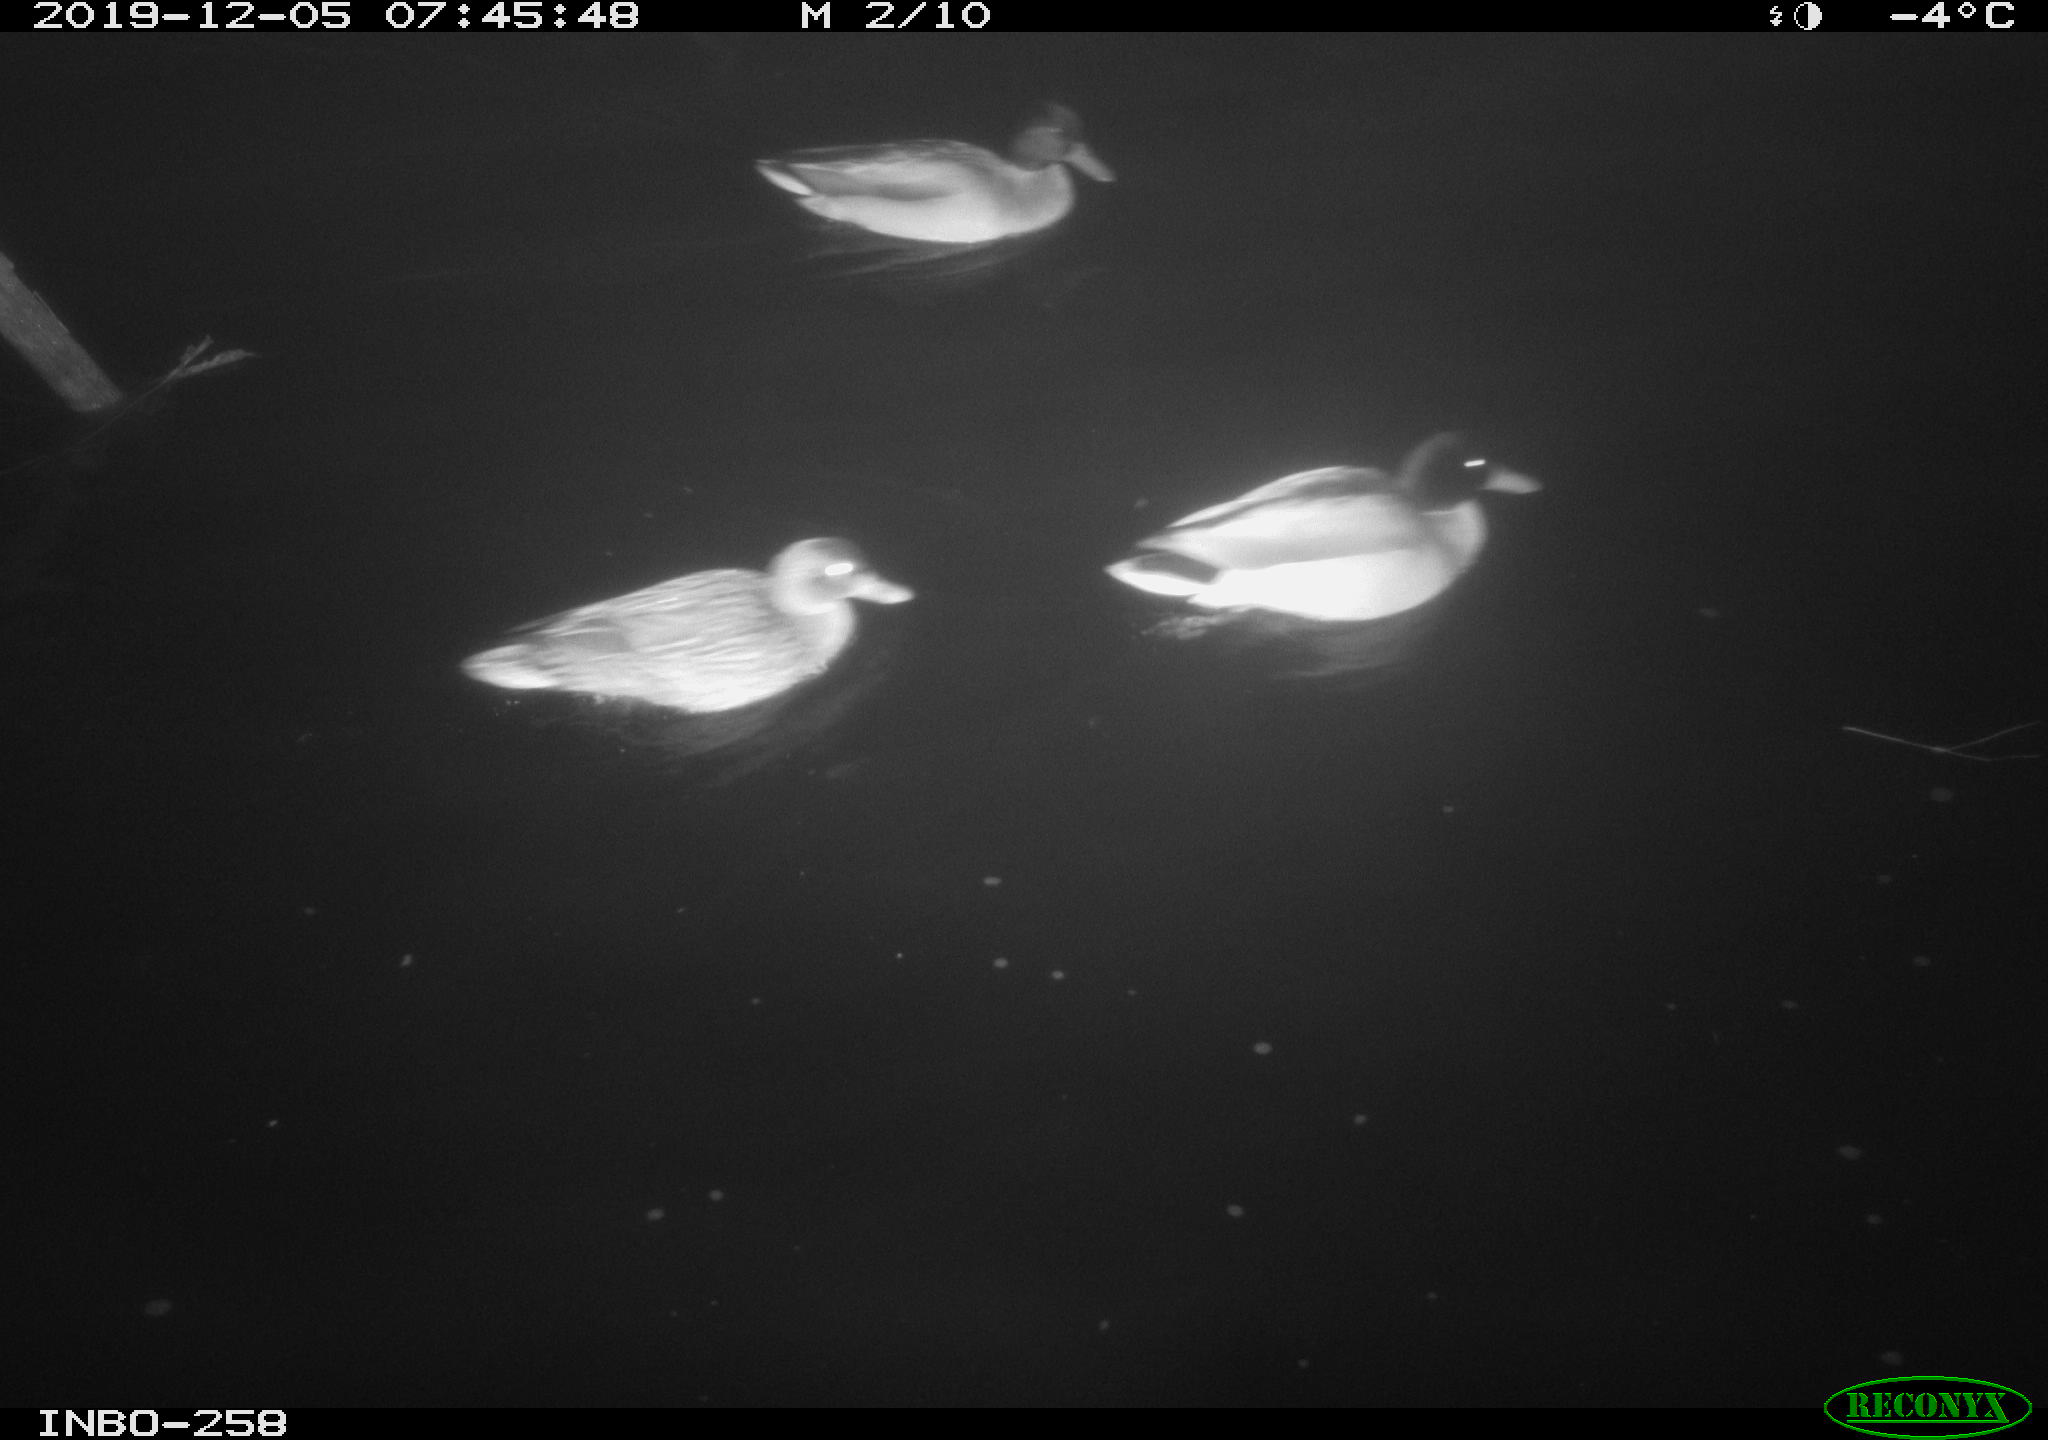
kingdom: Animalia
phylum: Chordata
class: Aves
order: Anseriformes
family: Anatidae
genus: Anas
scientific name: Anas platyrhynchos
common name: Mallard
